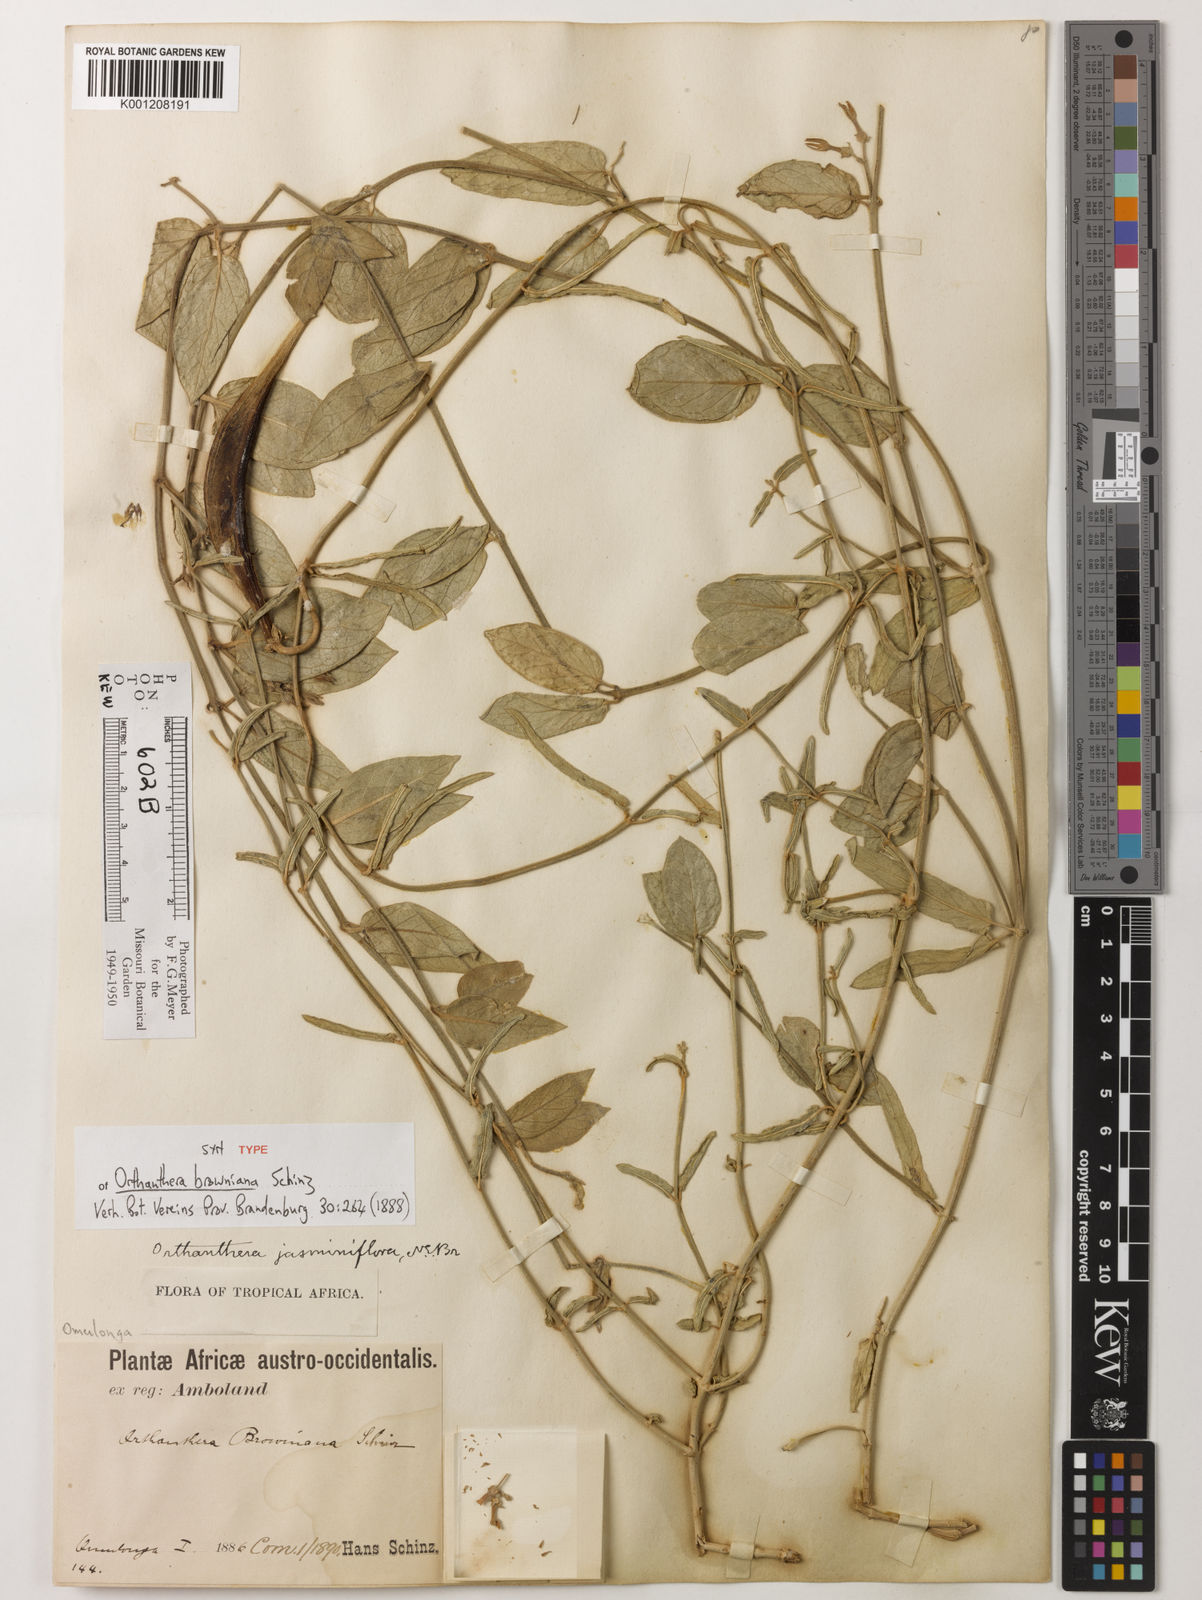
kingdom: Plantae
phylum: Tracheophyta
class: Magnoliopsida
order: Gentianales
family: Apocynaceae
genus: Orthanthera
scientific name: Orthanthera jasminiflora
